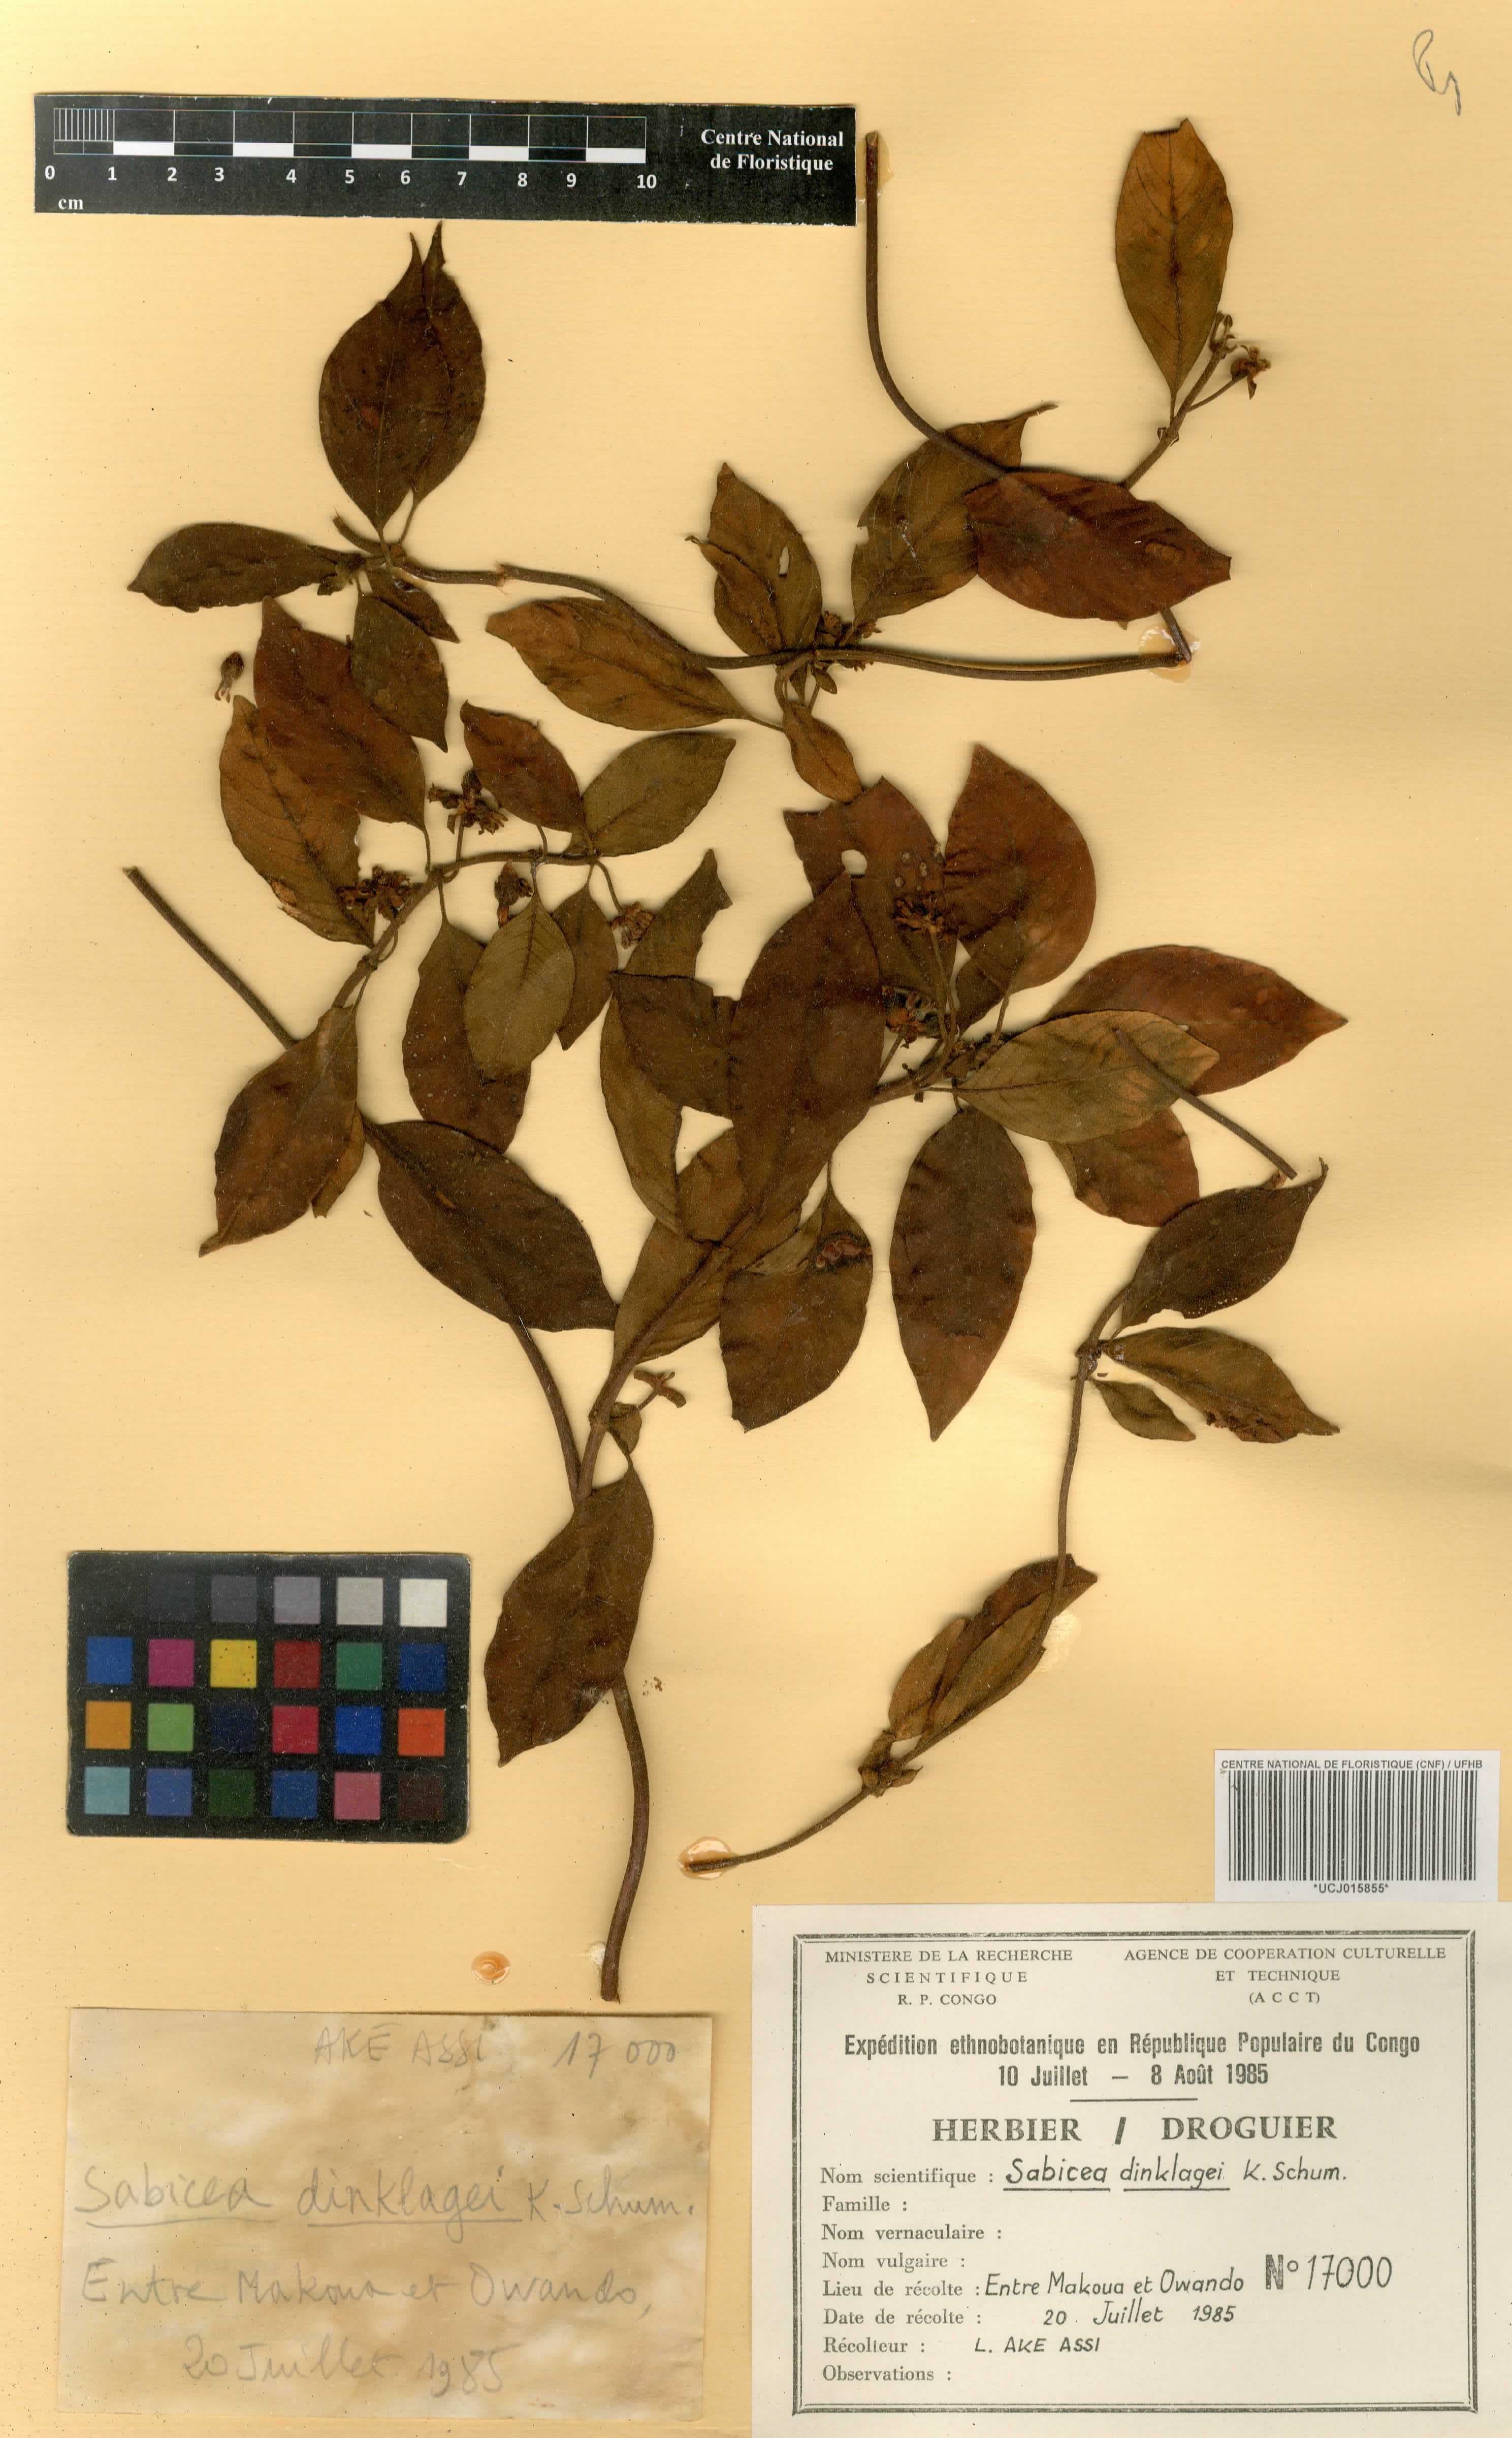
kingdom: Plantae
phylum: Tracheophyta
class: Magnoliopsida
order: Gentianales
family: Rubiaceae
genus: Sabicea
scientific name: Sabicea dinklagei
